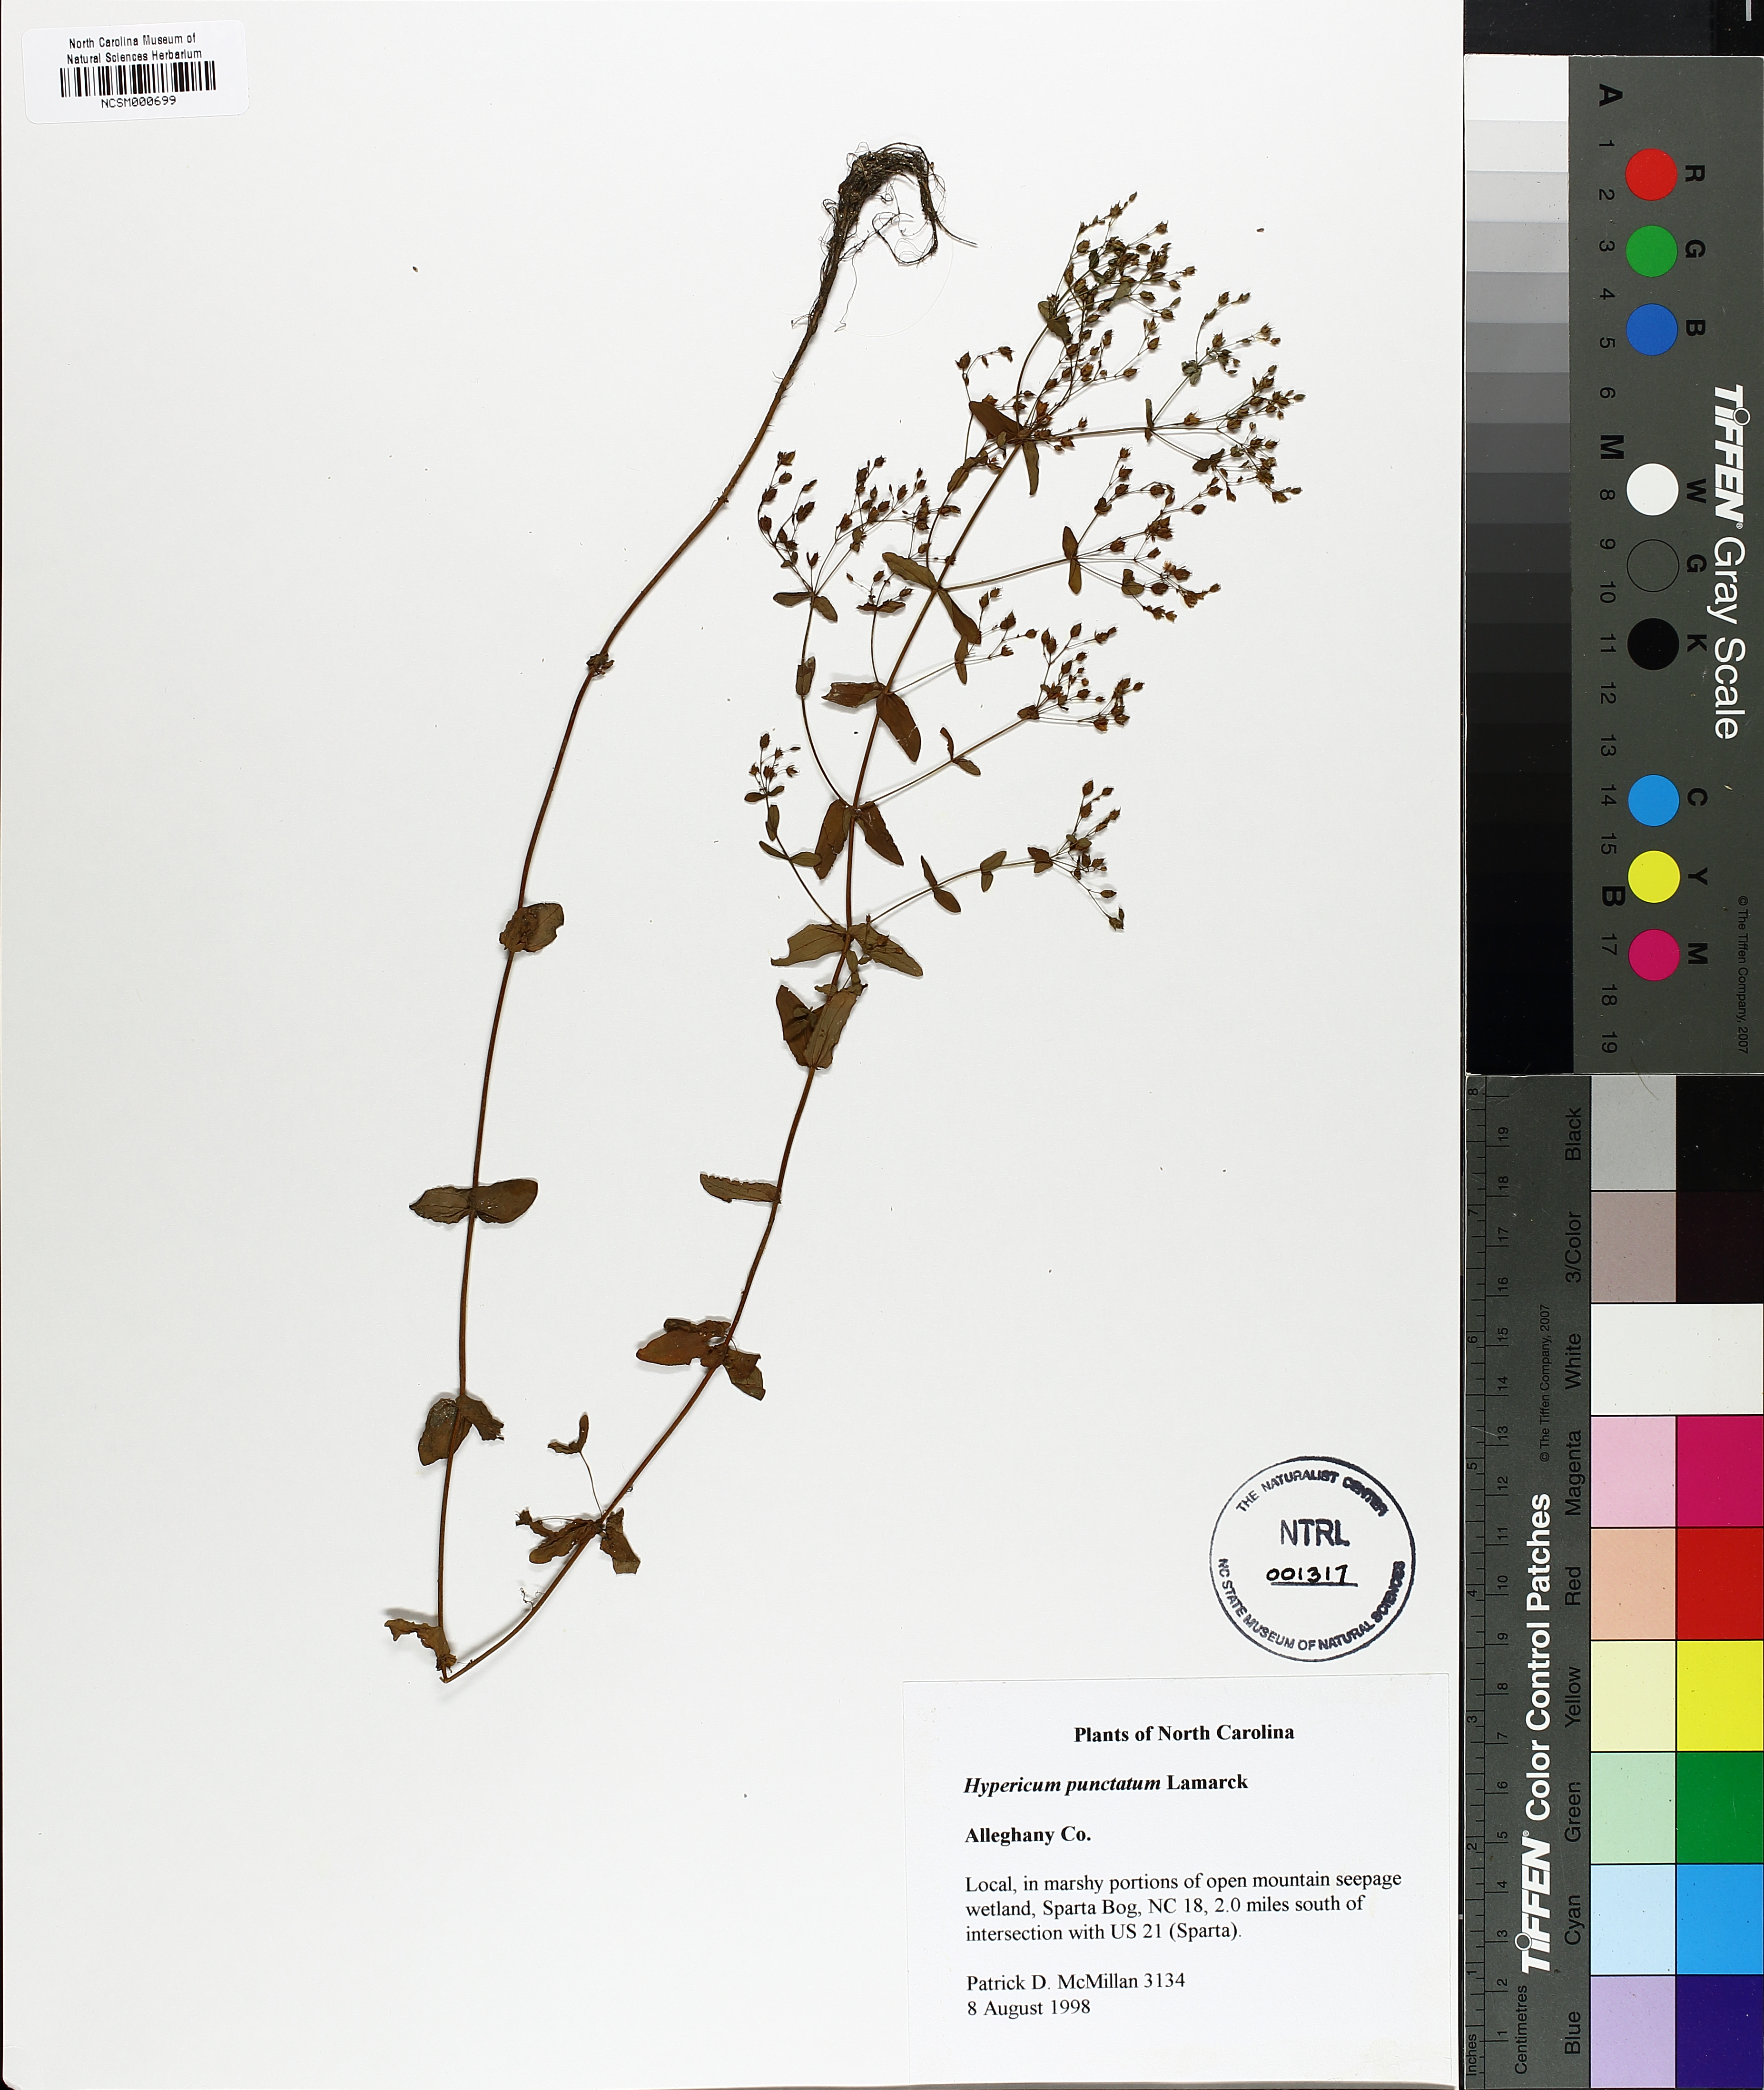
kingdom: Plantae
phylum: Tracheophyta
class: Magnoliopsida
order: Malpighiales
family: Hypericaceae
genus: Hypericum
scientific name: Hypericum punctatum
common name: Spotted st. john's-wort
